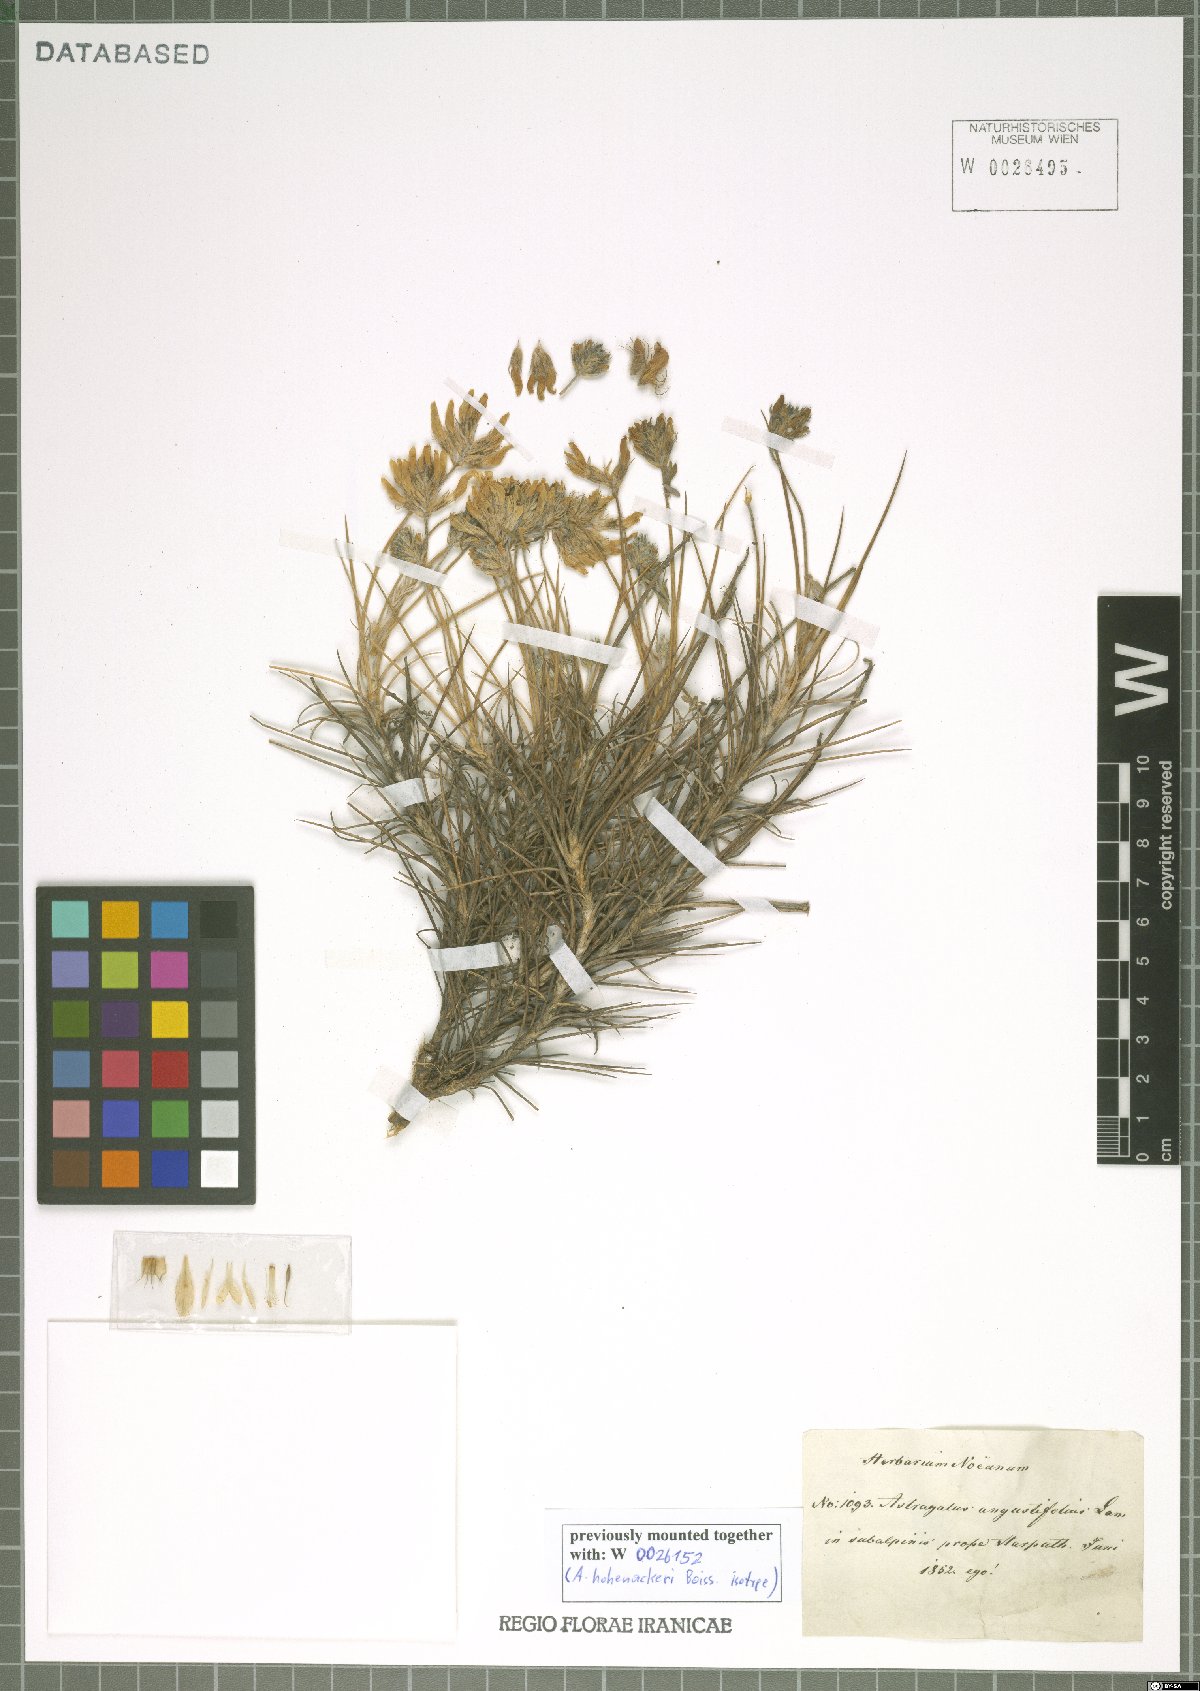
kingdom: Plantae
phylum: Tracheophyta
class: Magnoliopsida
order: Fabales
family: Fabaceae
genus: Astragalus
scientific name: Astragalus angustifolius
